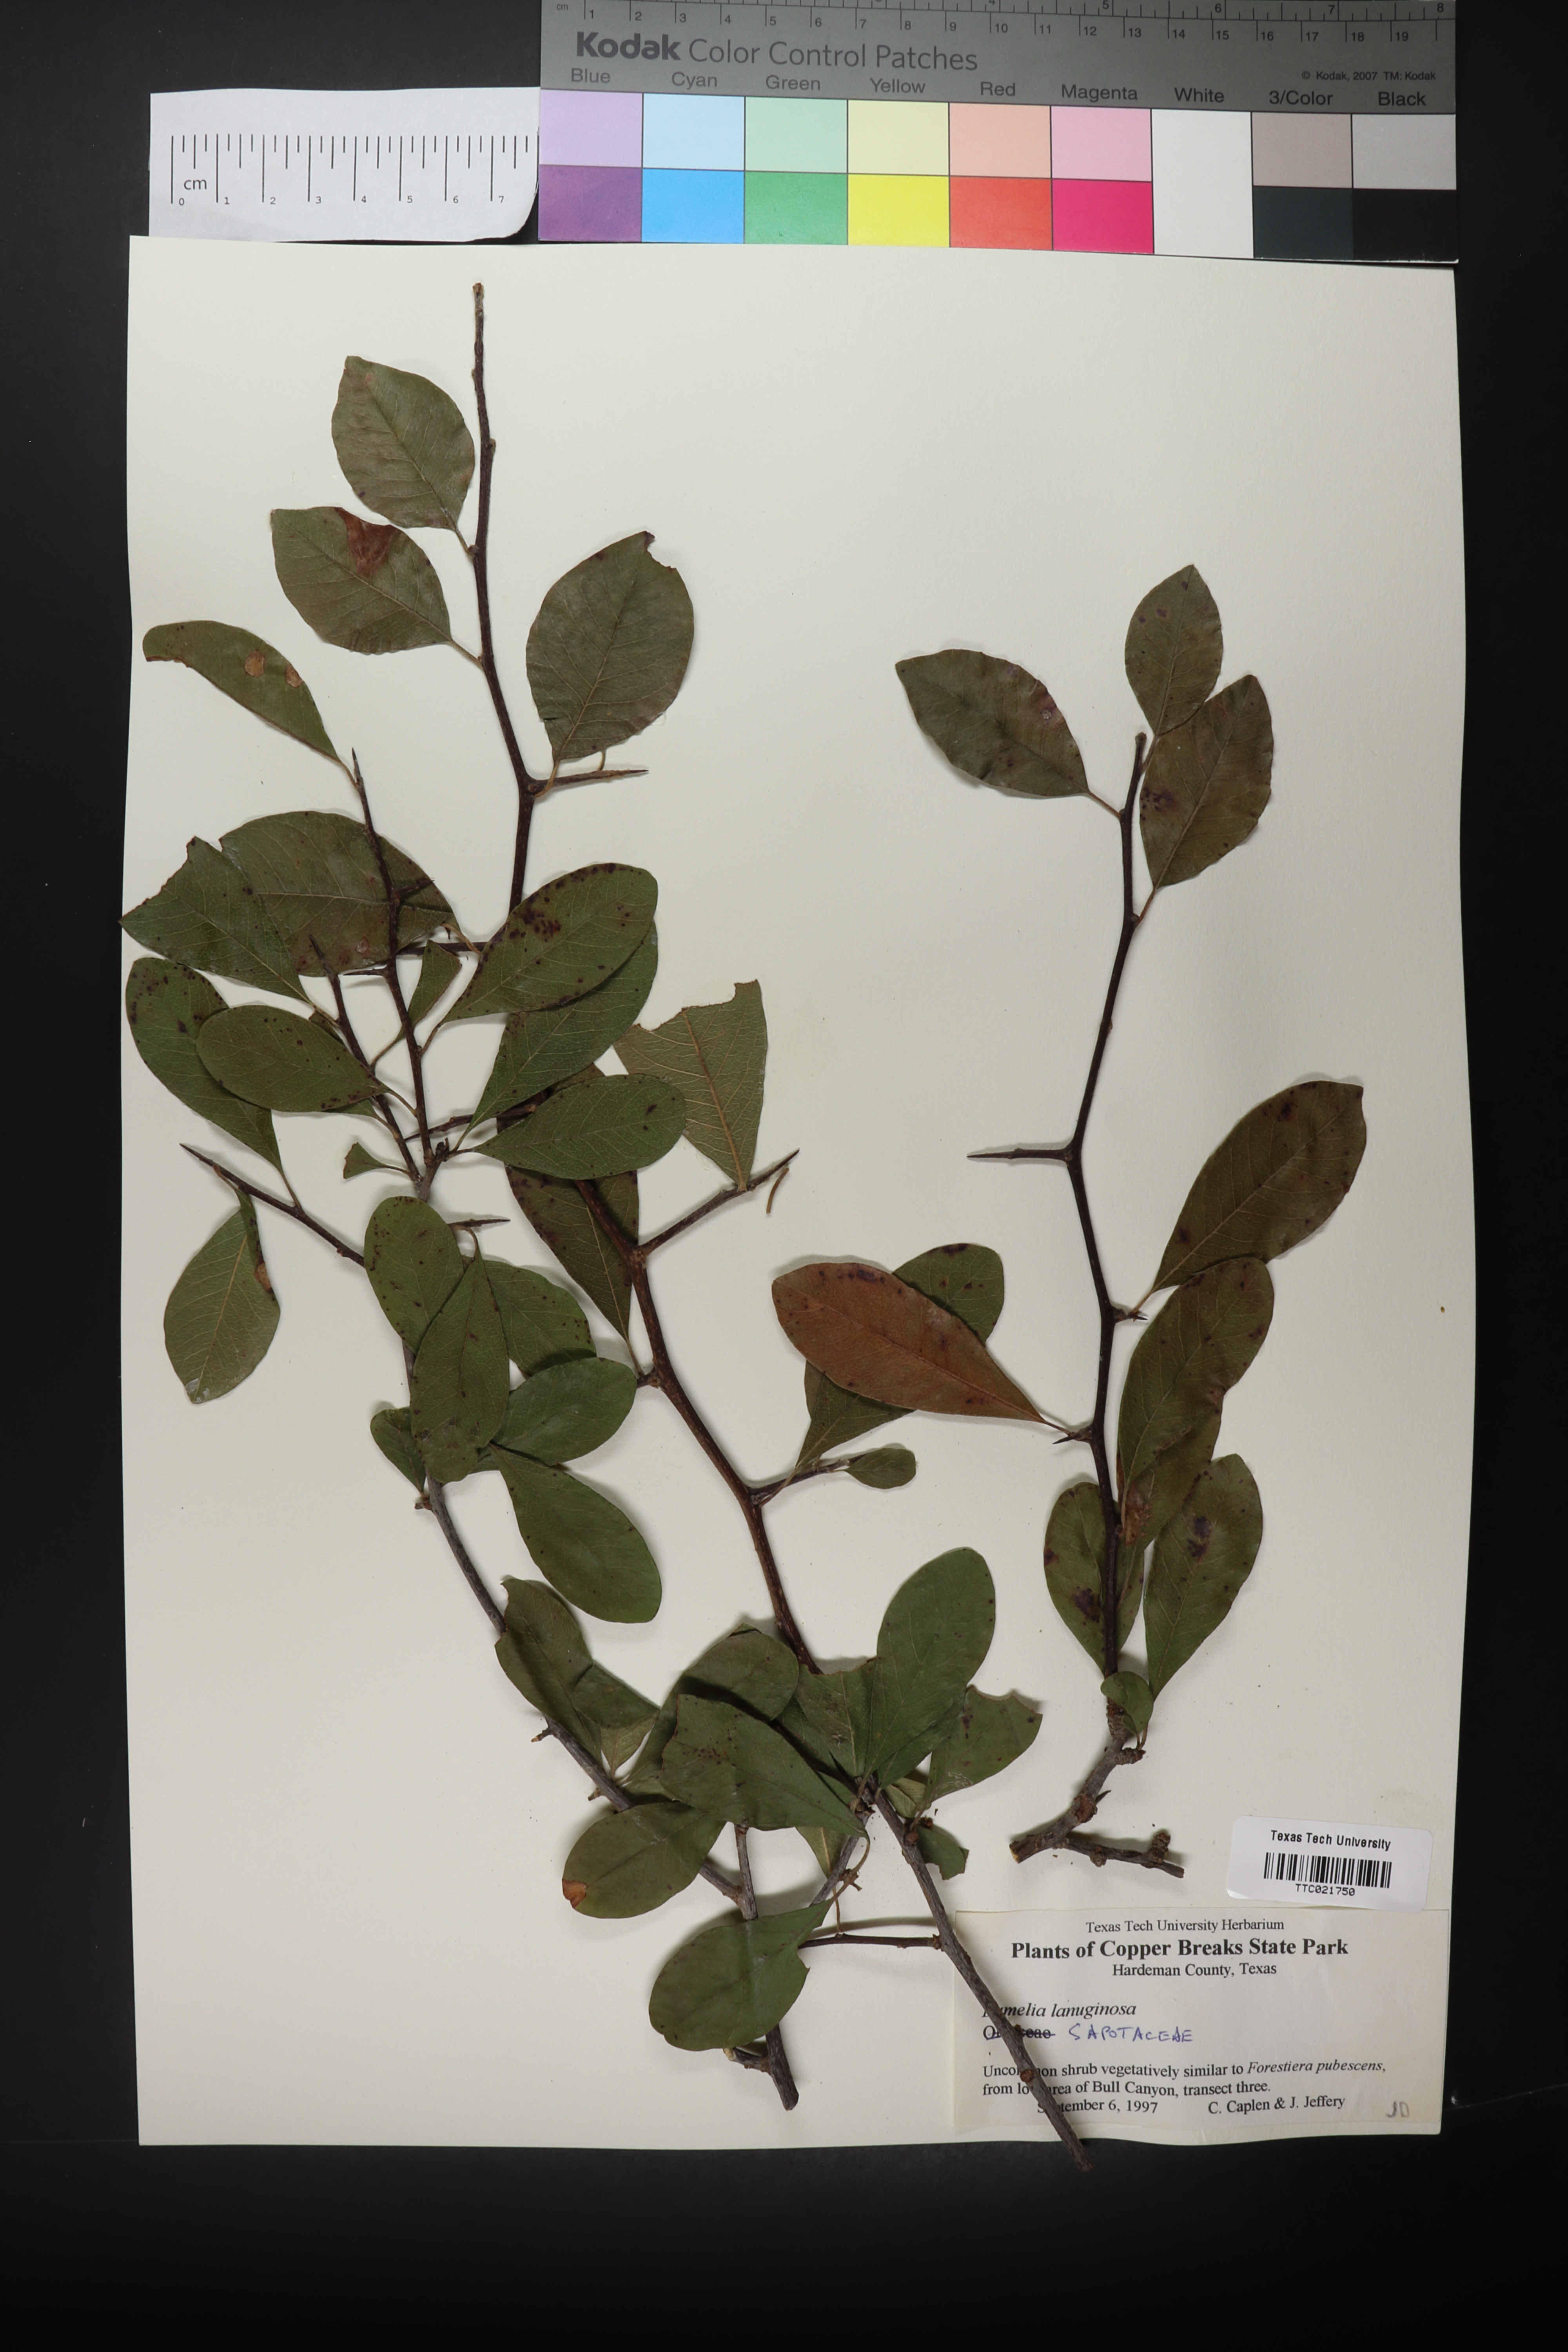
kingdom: Plantae
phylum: Tracheophyta
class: Magnoliopsida
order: Ericales
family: Sapotaceae
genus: Sideroxylon
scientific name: Sideroxylon lanuginosum
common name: Chittamwood
